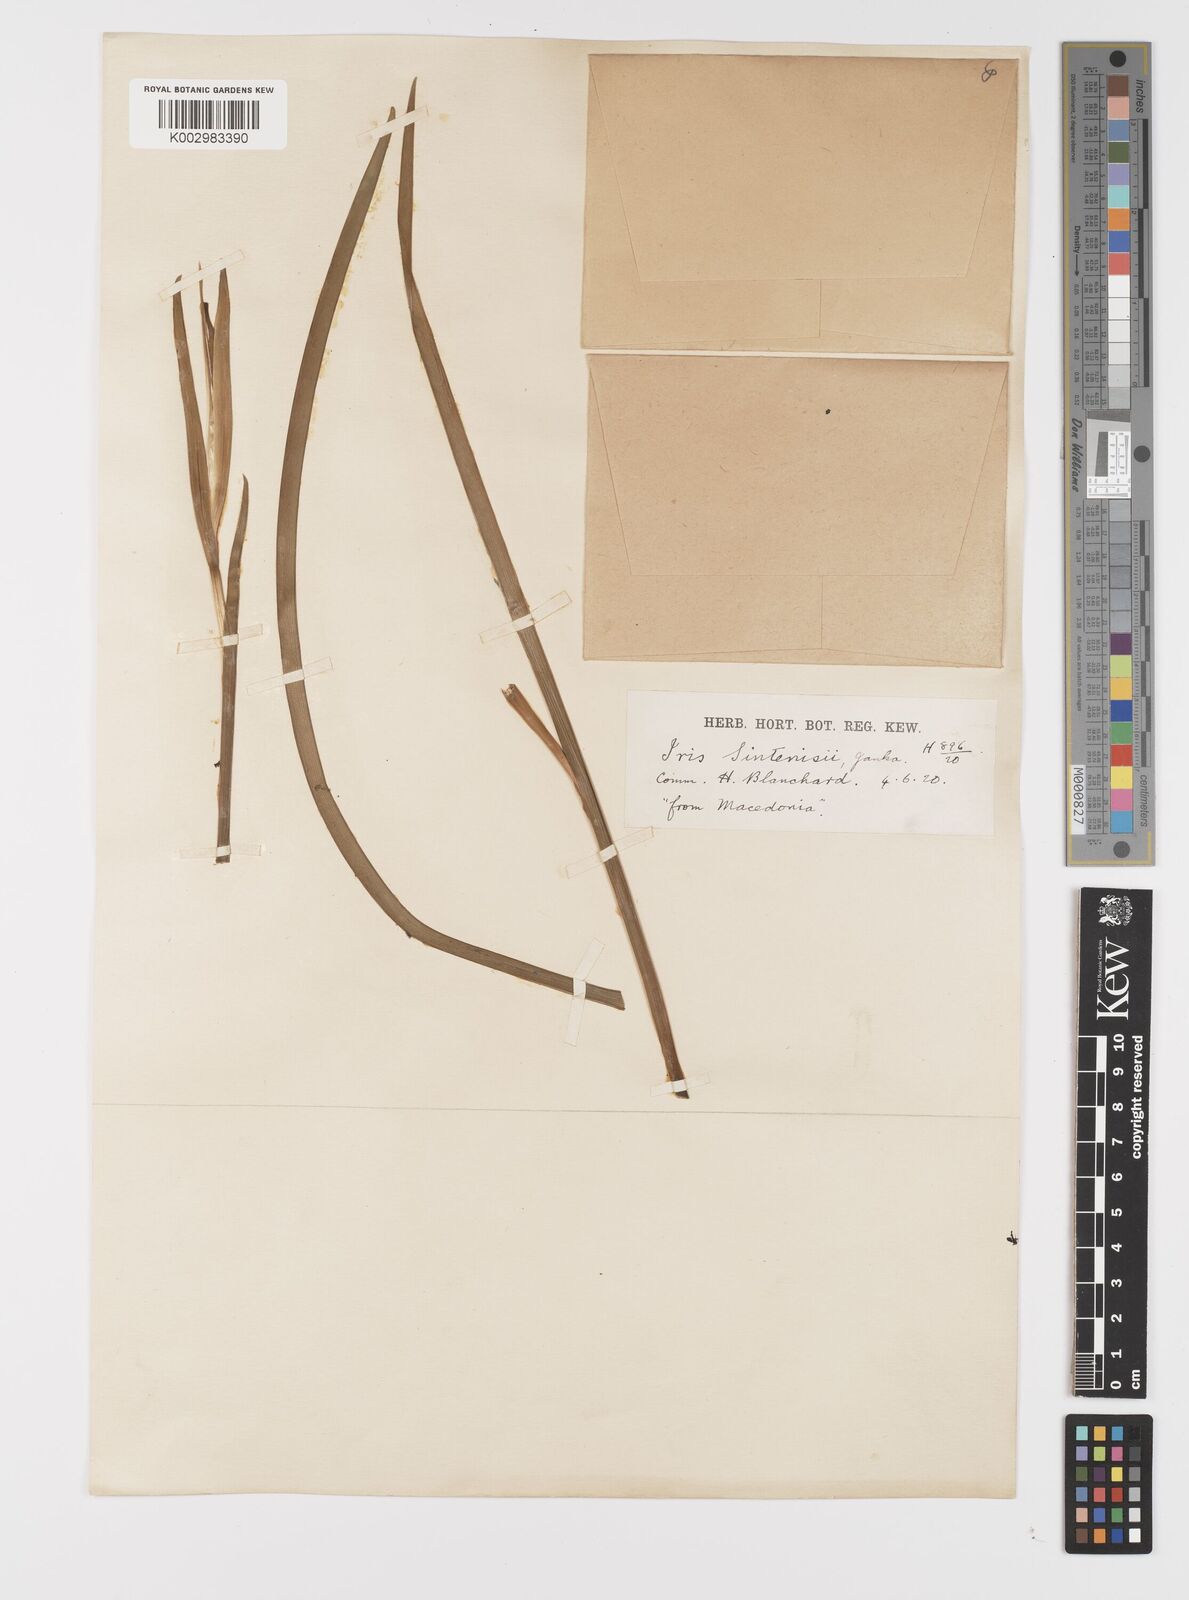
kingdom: Plantae
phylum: Tracheophyta
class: Liliopsida
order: Asparagales
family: Iridaceae
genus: Iris
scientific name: Iris sintenisii
